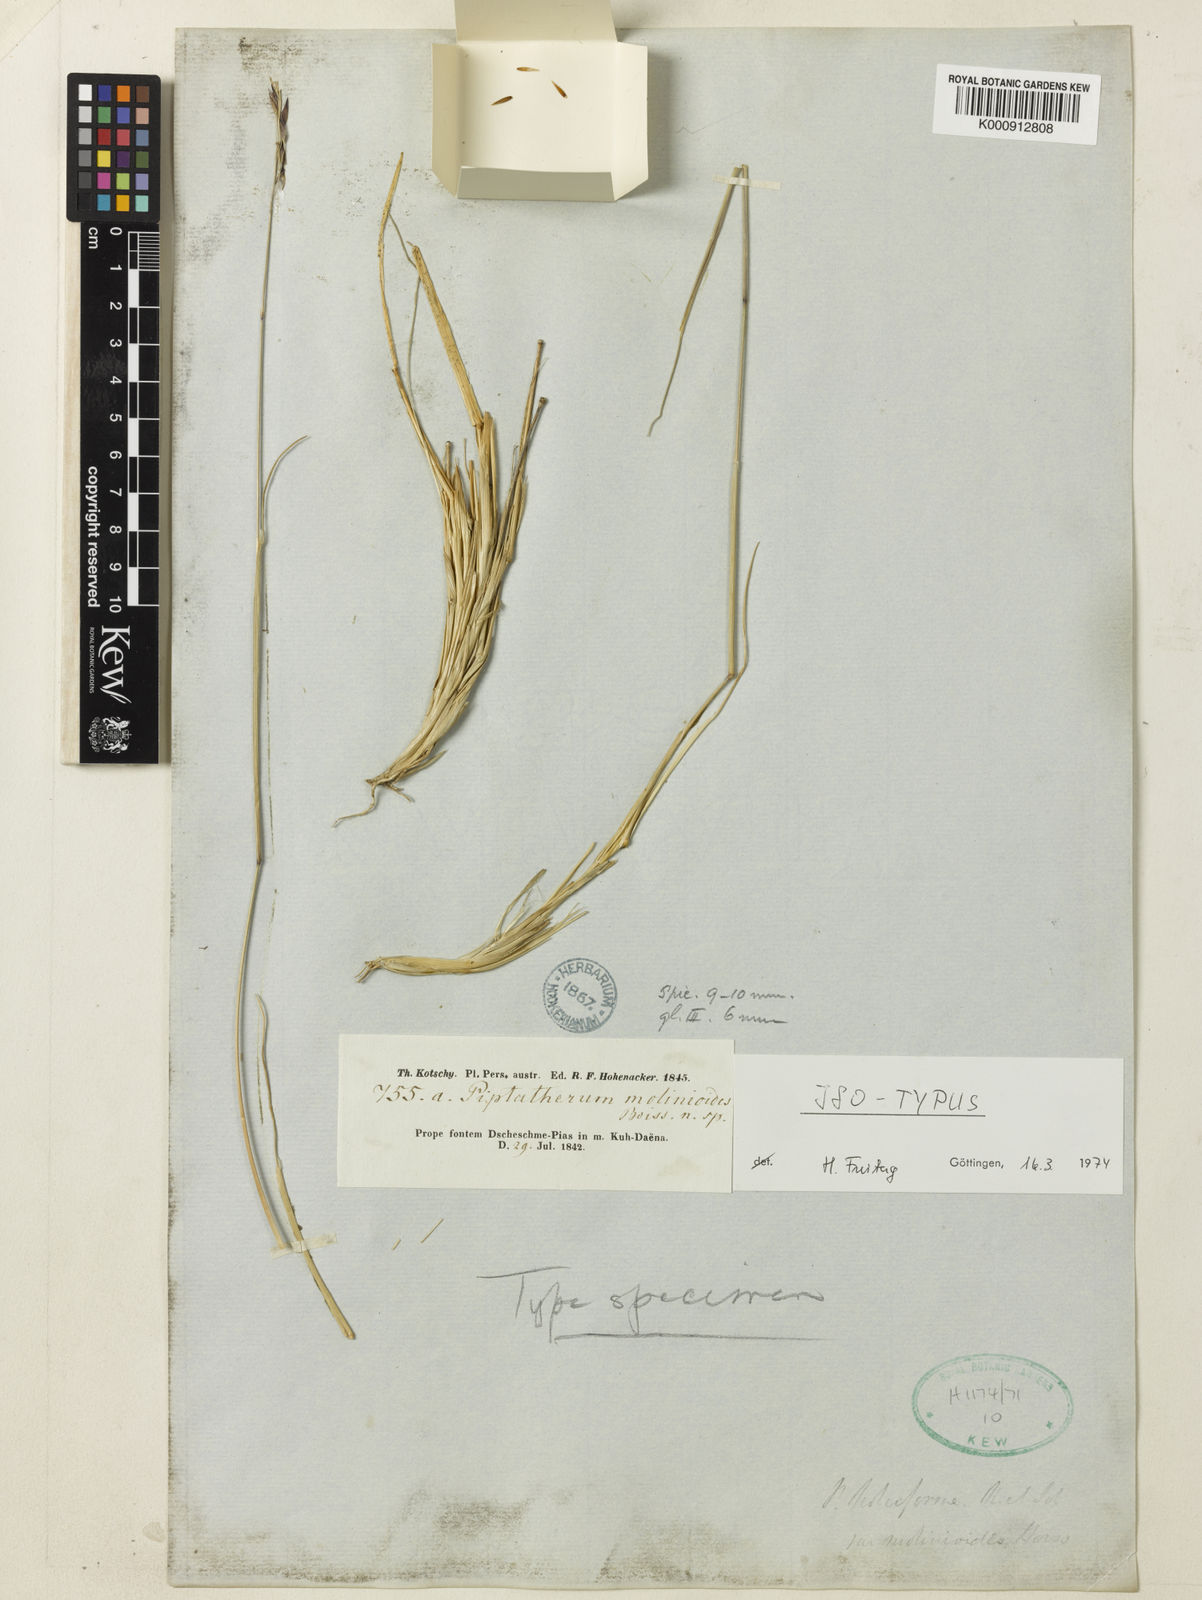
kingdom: Plantae
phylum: Tracheophyta
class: Liliopsida
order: Poales
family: Poaceae
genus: Piptatherum
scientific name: Piptatherum
